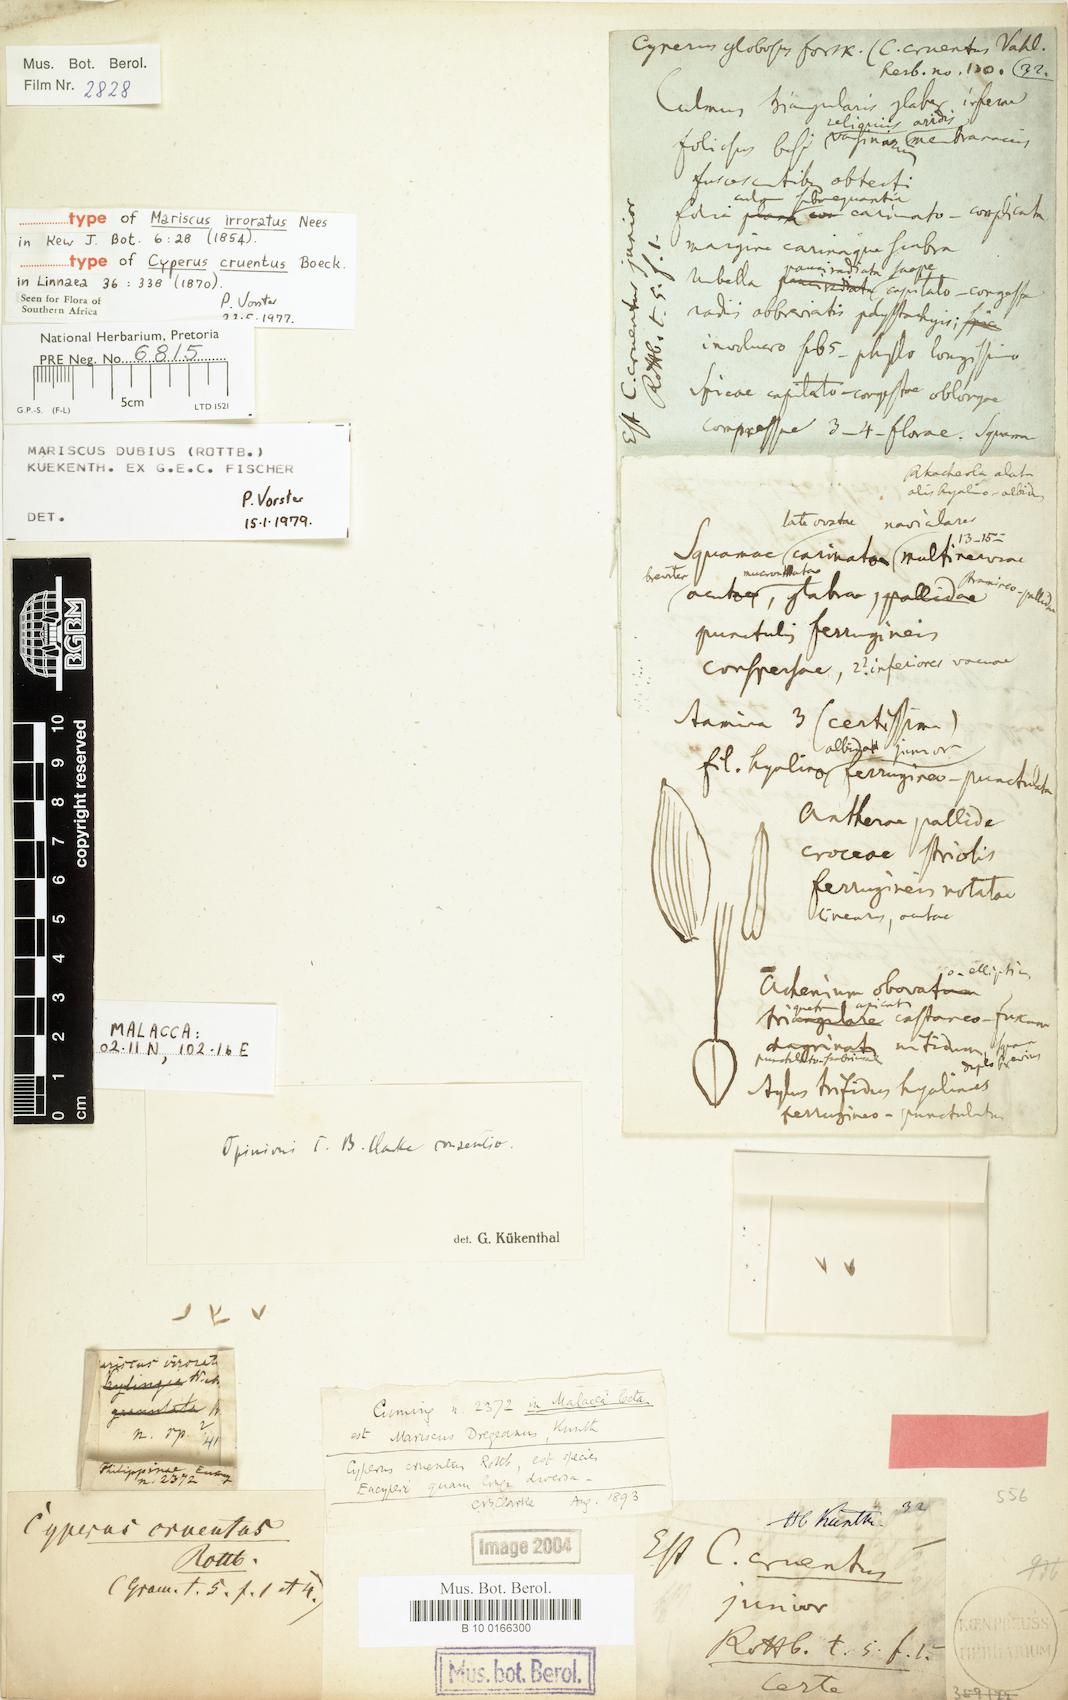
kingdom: Plantae
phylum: Tracheophyta
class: Liliopsida
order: Poales
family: Cyperaceae
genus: Cyperus
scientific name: Cyperus dubius
